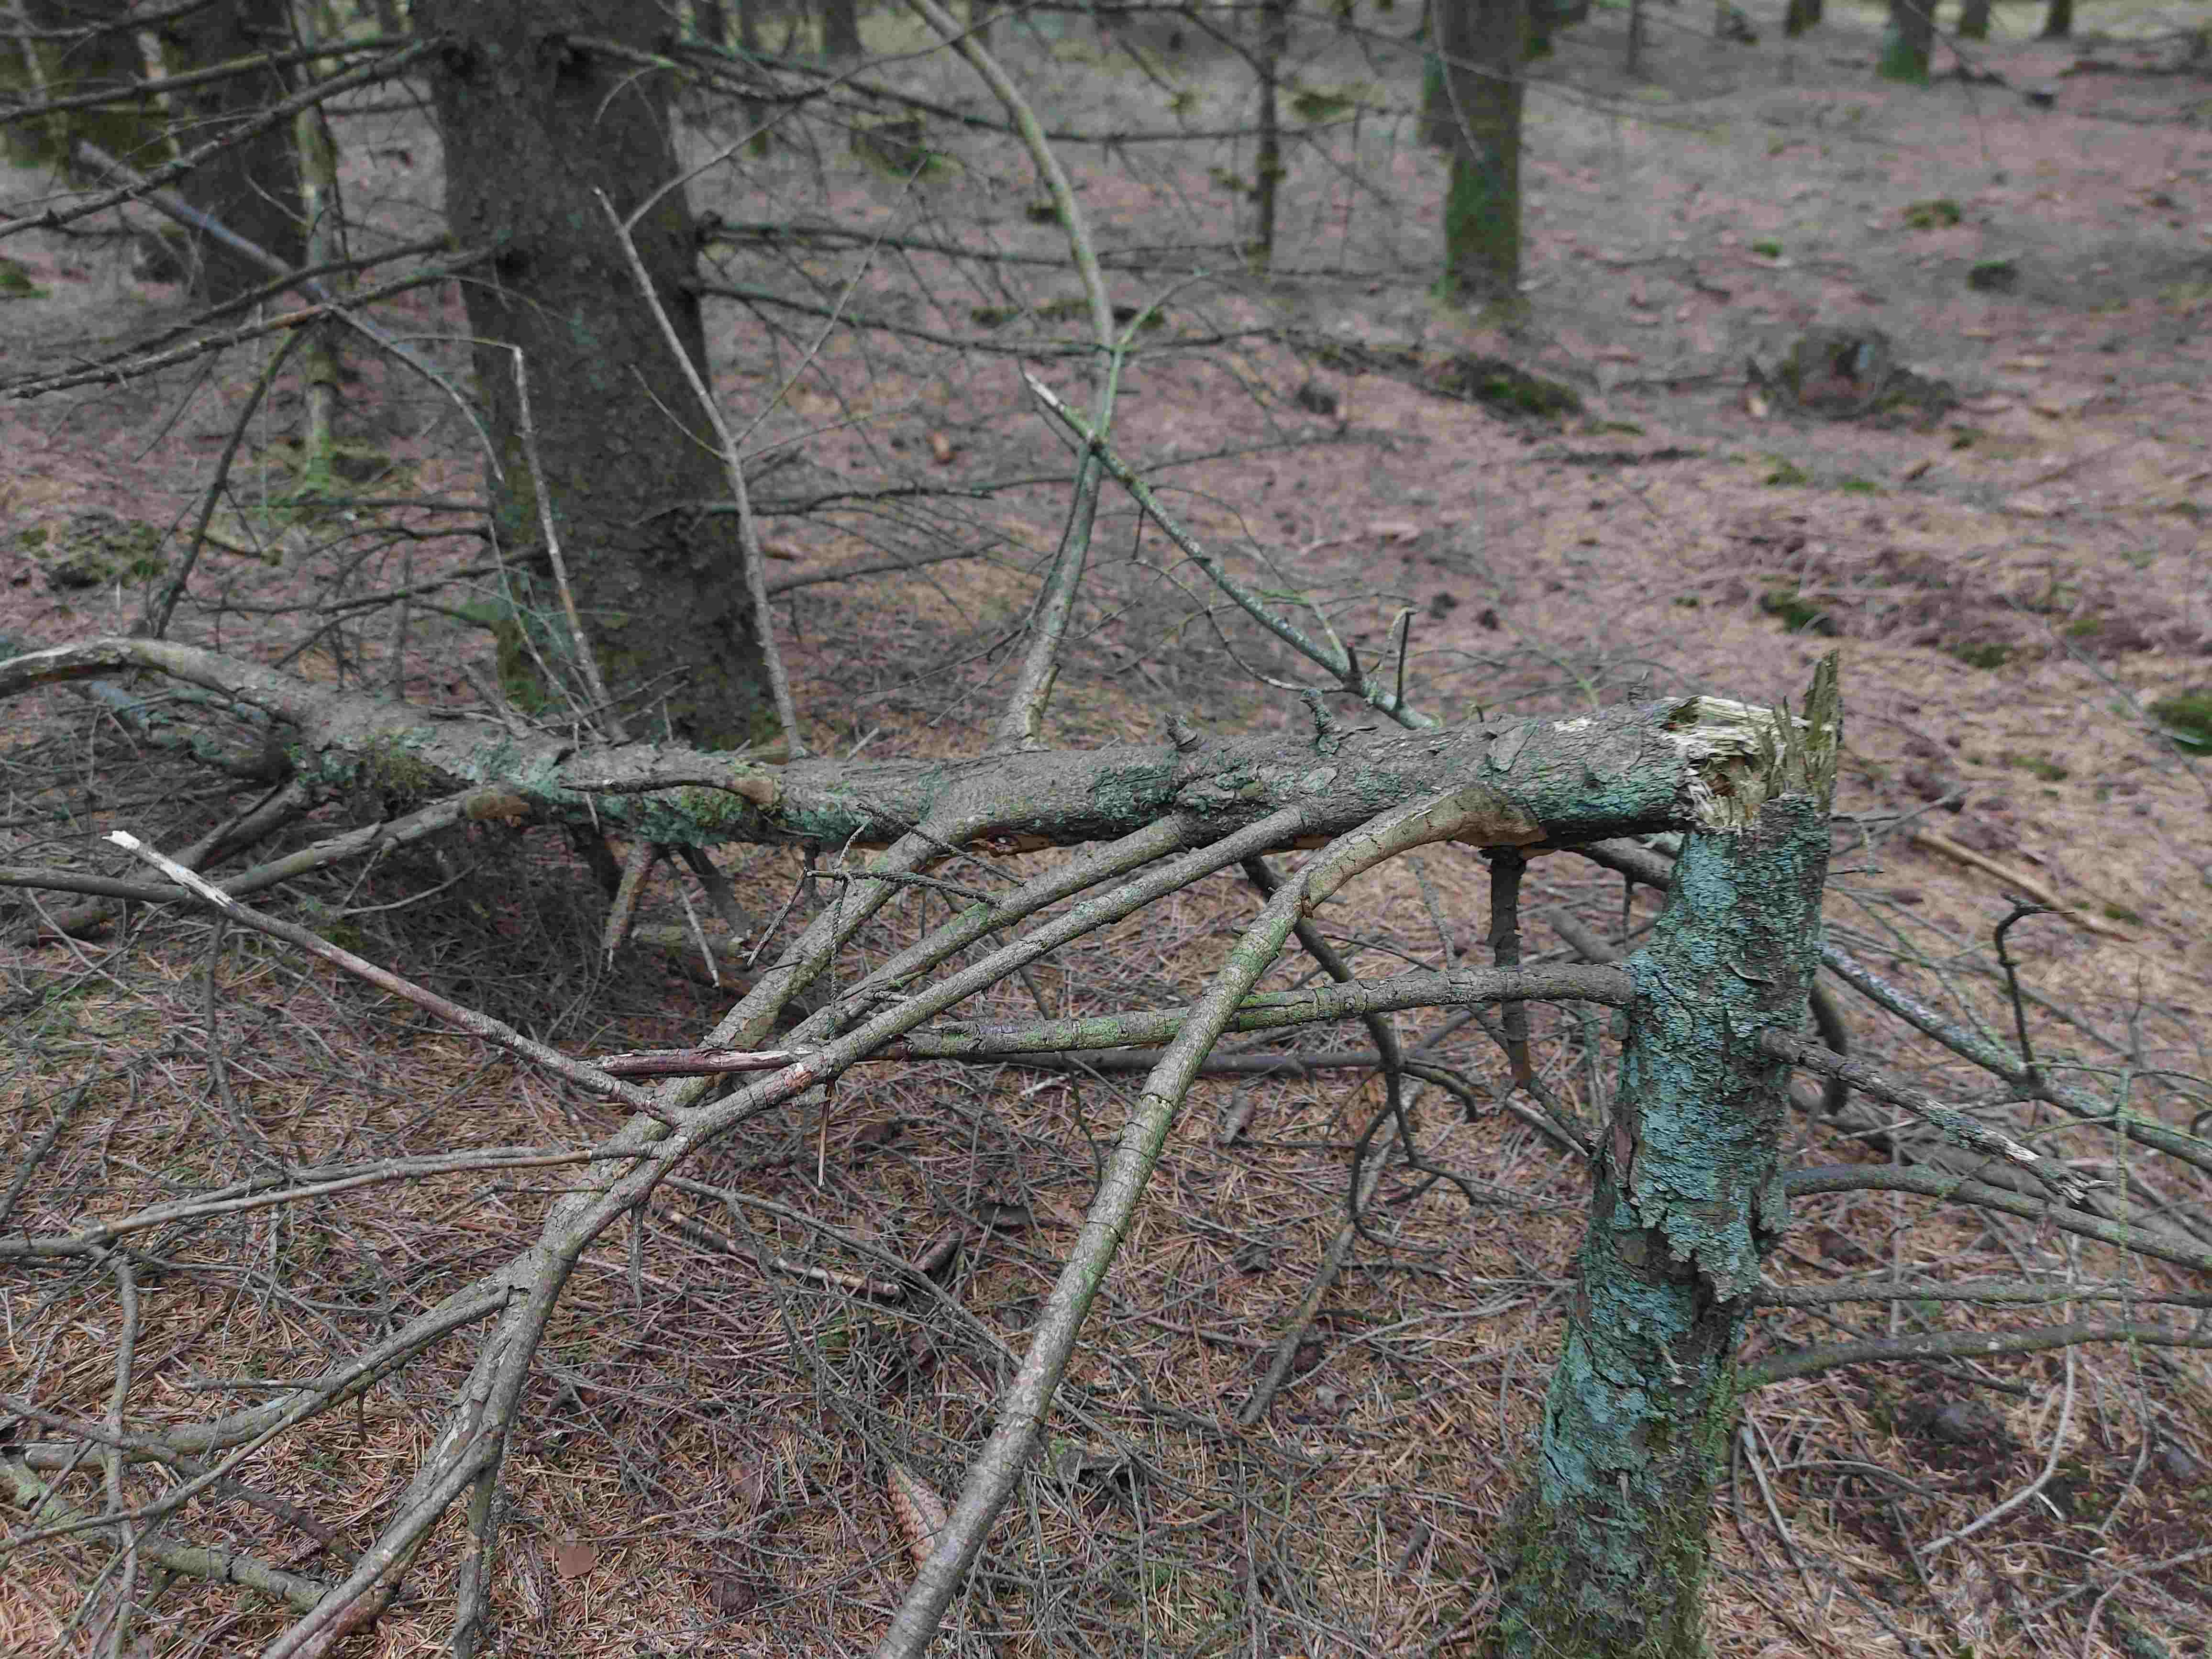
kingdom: Fungi
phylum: Basidiomycota
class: Agaricomycetes
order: Hymenochaetales
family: Hymenochaetaceae
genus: Fuscoporia
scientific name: Fuscoporia ferrea
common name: skorpe-ildporesvamp
